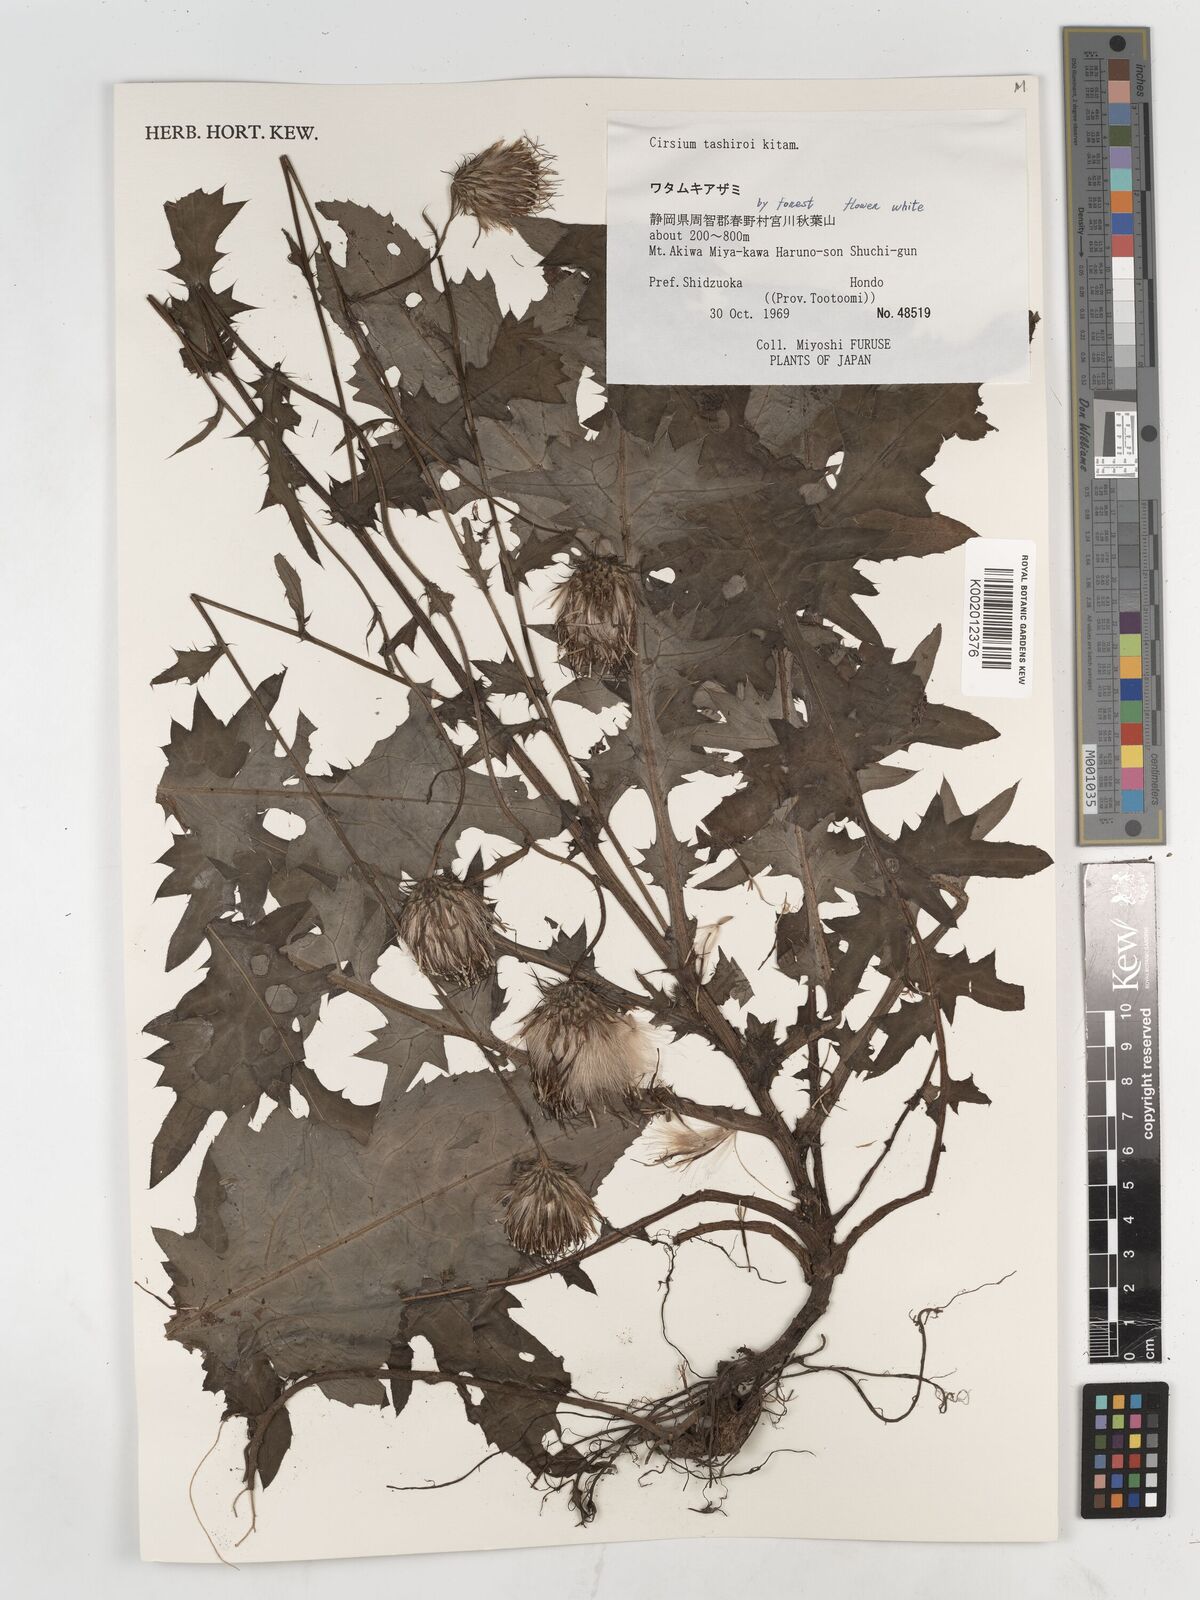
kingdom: Plantae
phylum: Tracheophyta
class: Magnoliopsida
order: Asterales
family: Asteraceae
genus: Cirsium
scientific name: Cirsium tashiroi
